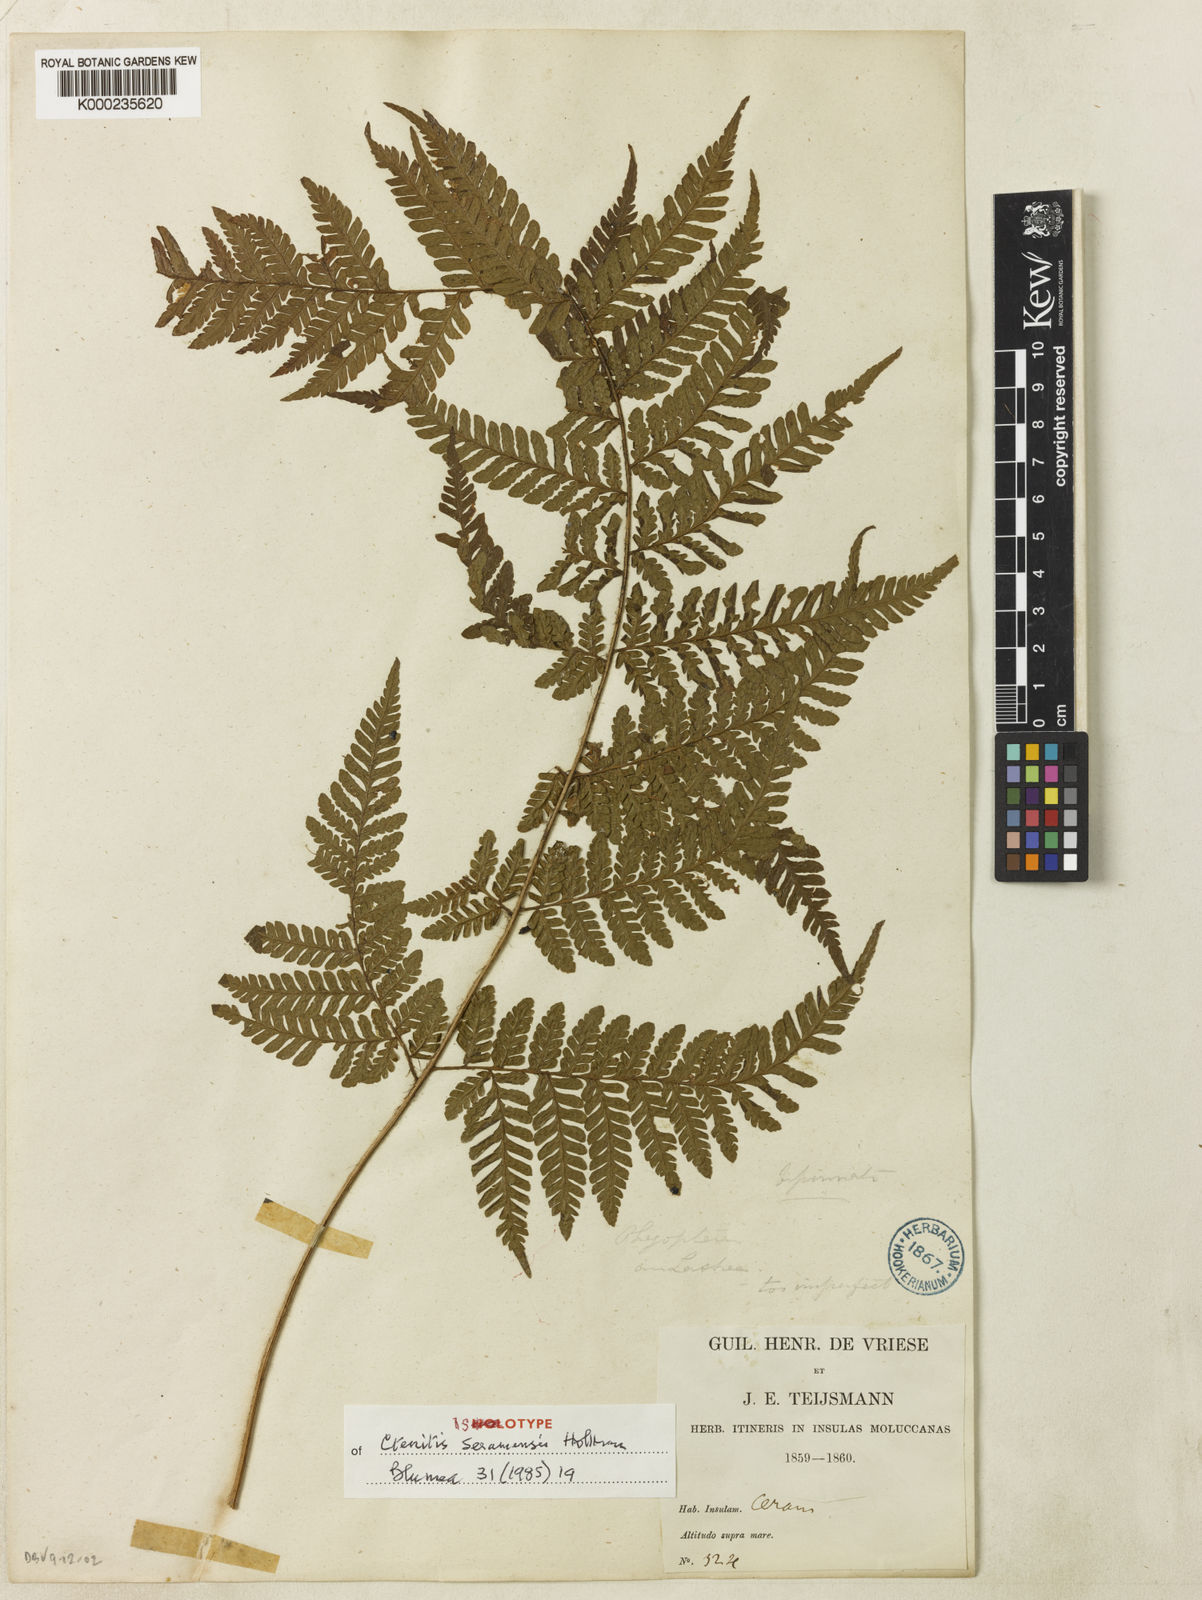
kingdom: Plantae
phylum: Tracheophyta
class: Polypodiopsida
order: Polypodiales
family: Dryopteridaceae
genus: Ctenitis
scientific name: Ctenitis seramensis
